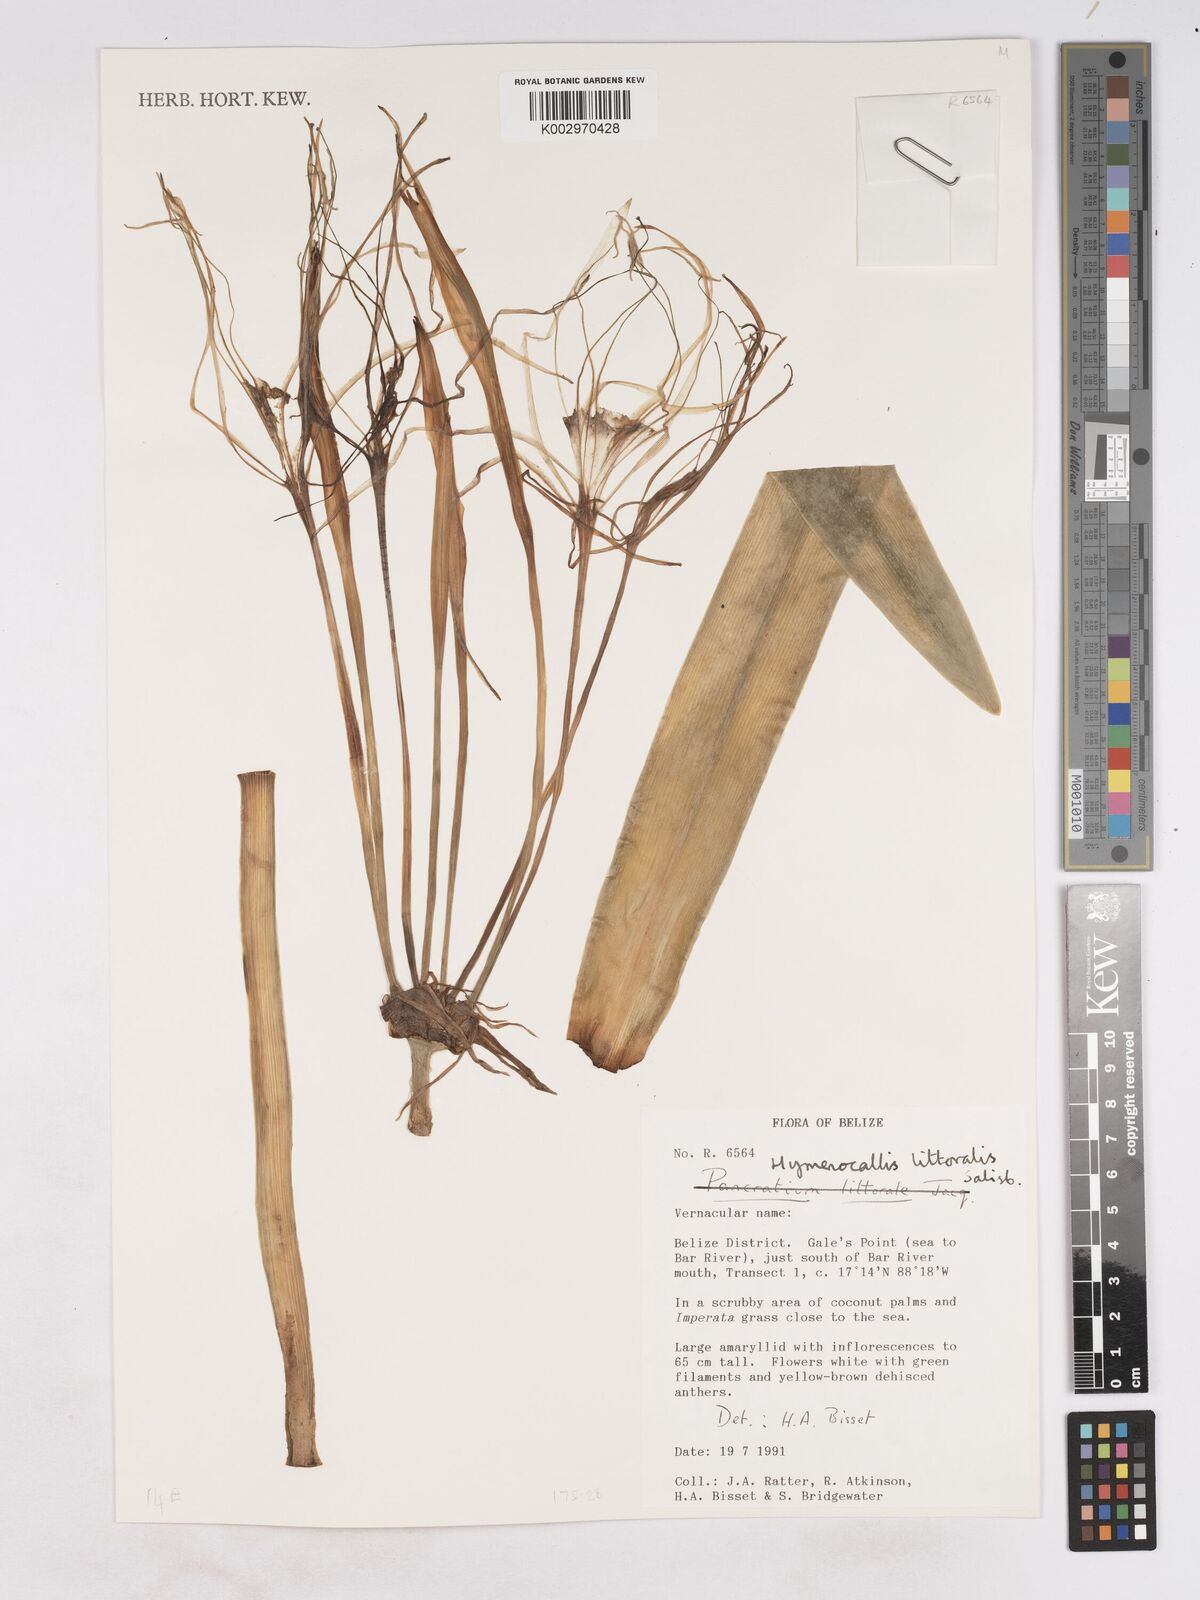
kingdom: Plantae
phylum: Tracheophyta
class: Liliopsida
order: Asparagales
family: Amaryllidaceae
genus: Hymenocallis
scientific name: Hymenocallis littoralis
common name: Beach spiderlily
